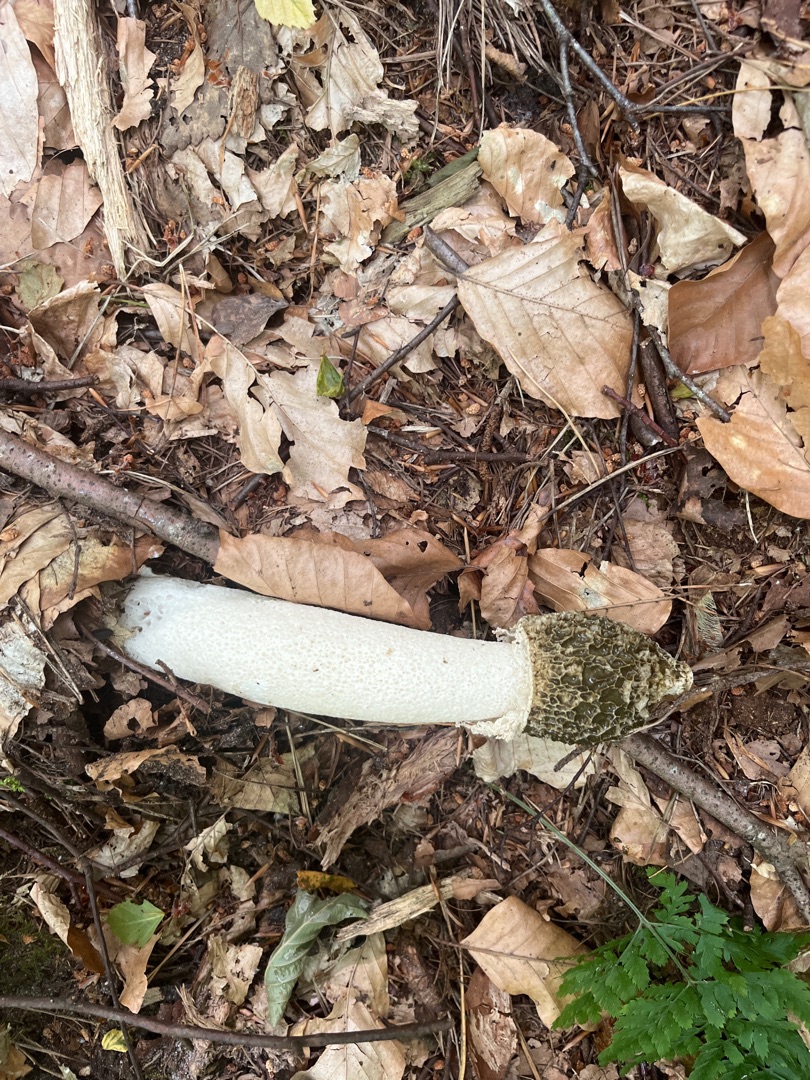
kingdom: Fungi
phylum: Basidiomycota
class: Agaricomycetes
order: Phallales
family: Phallaceae
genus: Phallus
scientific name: Phallus impudicus
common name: Almindelig stinksvamp
